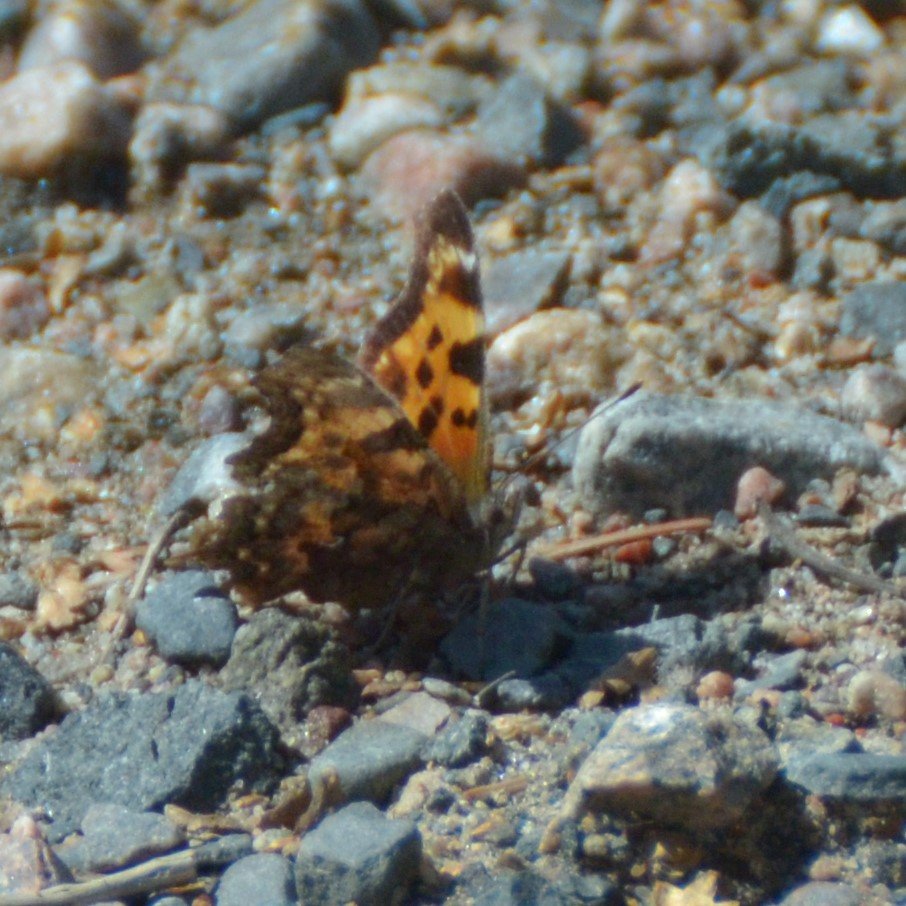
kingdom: Animalia
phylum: Arthropoda
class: Insecta
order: Lepidoptera
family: Nymphalidae
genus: Polygonia
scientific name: Polygonia faunus
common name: Green Comma
